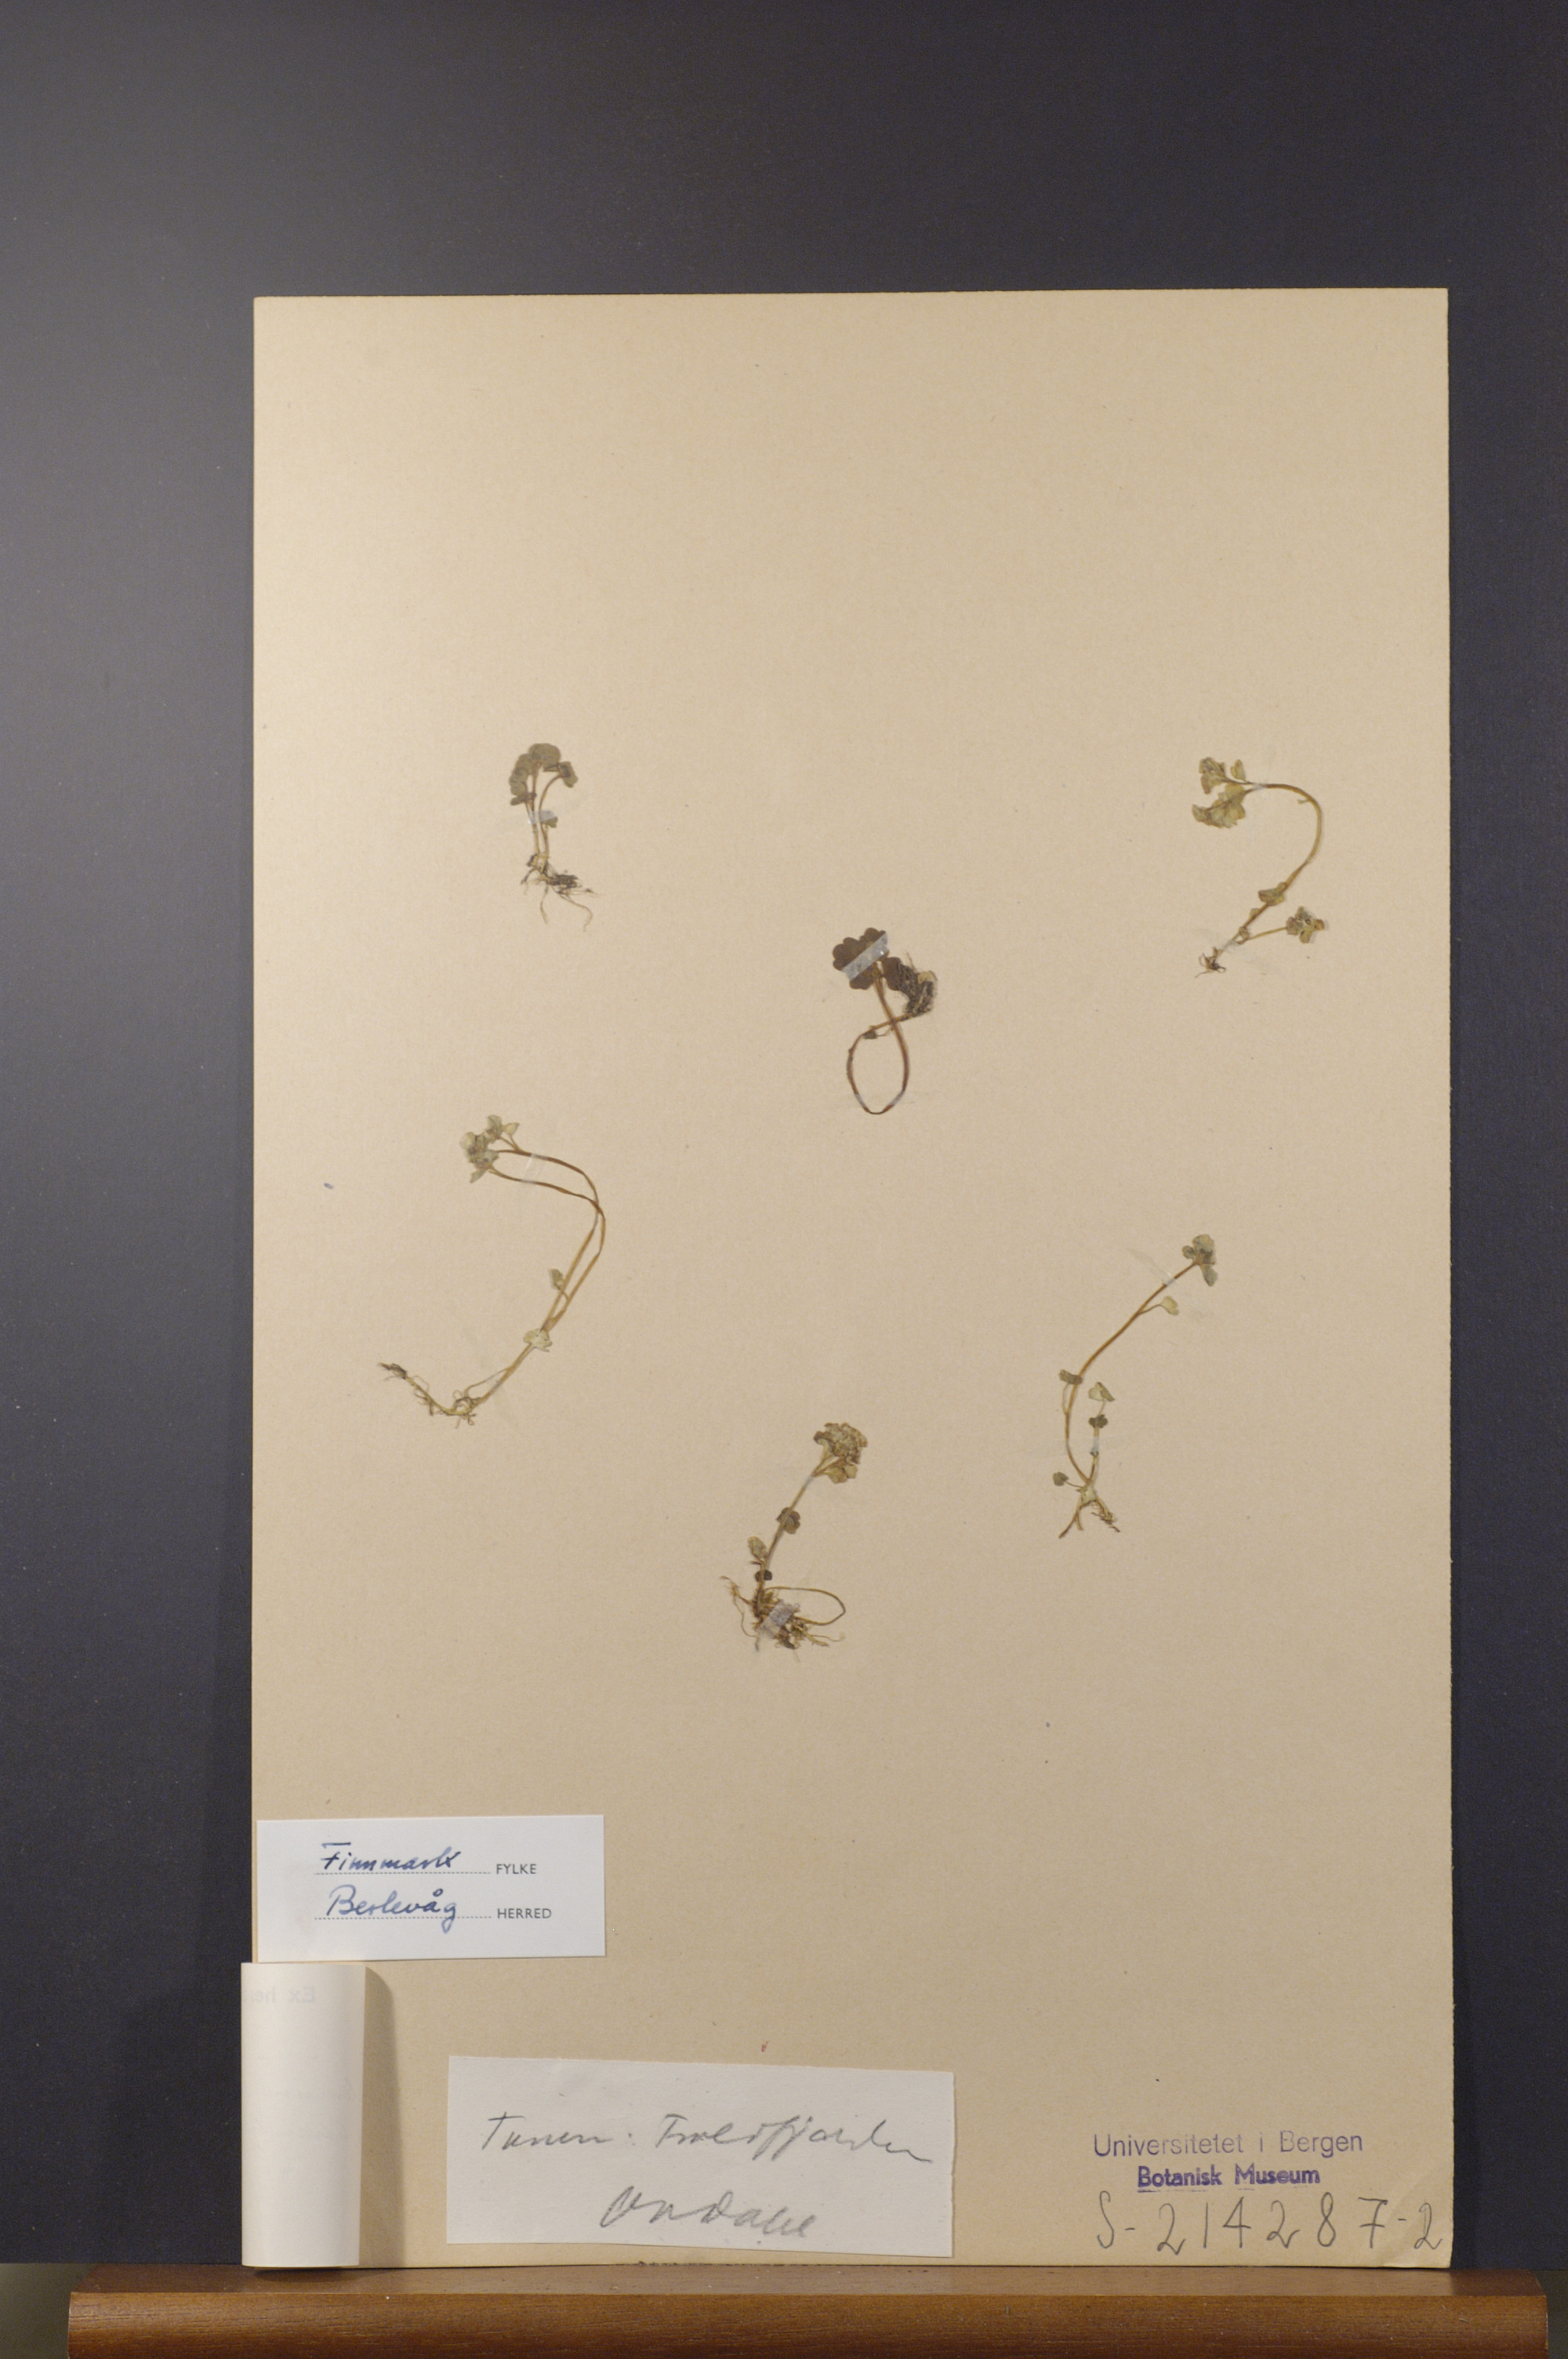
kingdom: Plantae
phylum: Tracheophyta
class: Magnoliopsida
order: Saxifragales
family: Saxifragaceae
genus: Chrysosplenium
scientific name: Chrysosplenium tetrandrum
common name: Green saxifrage
